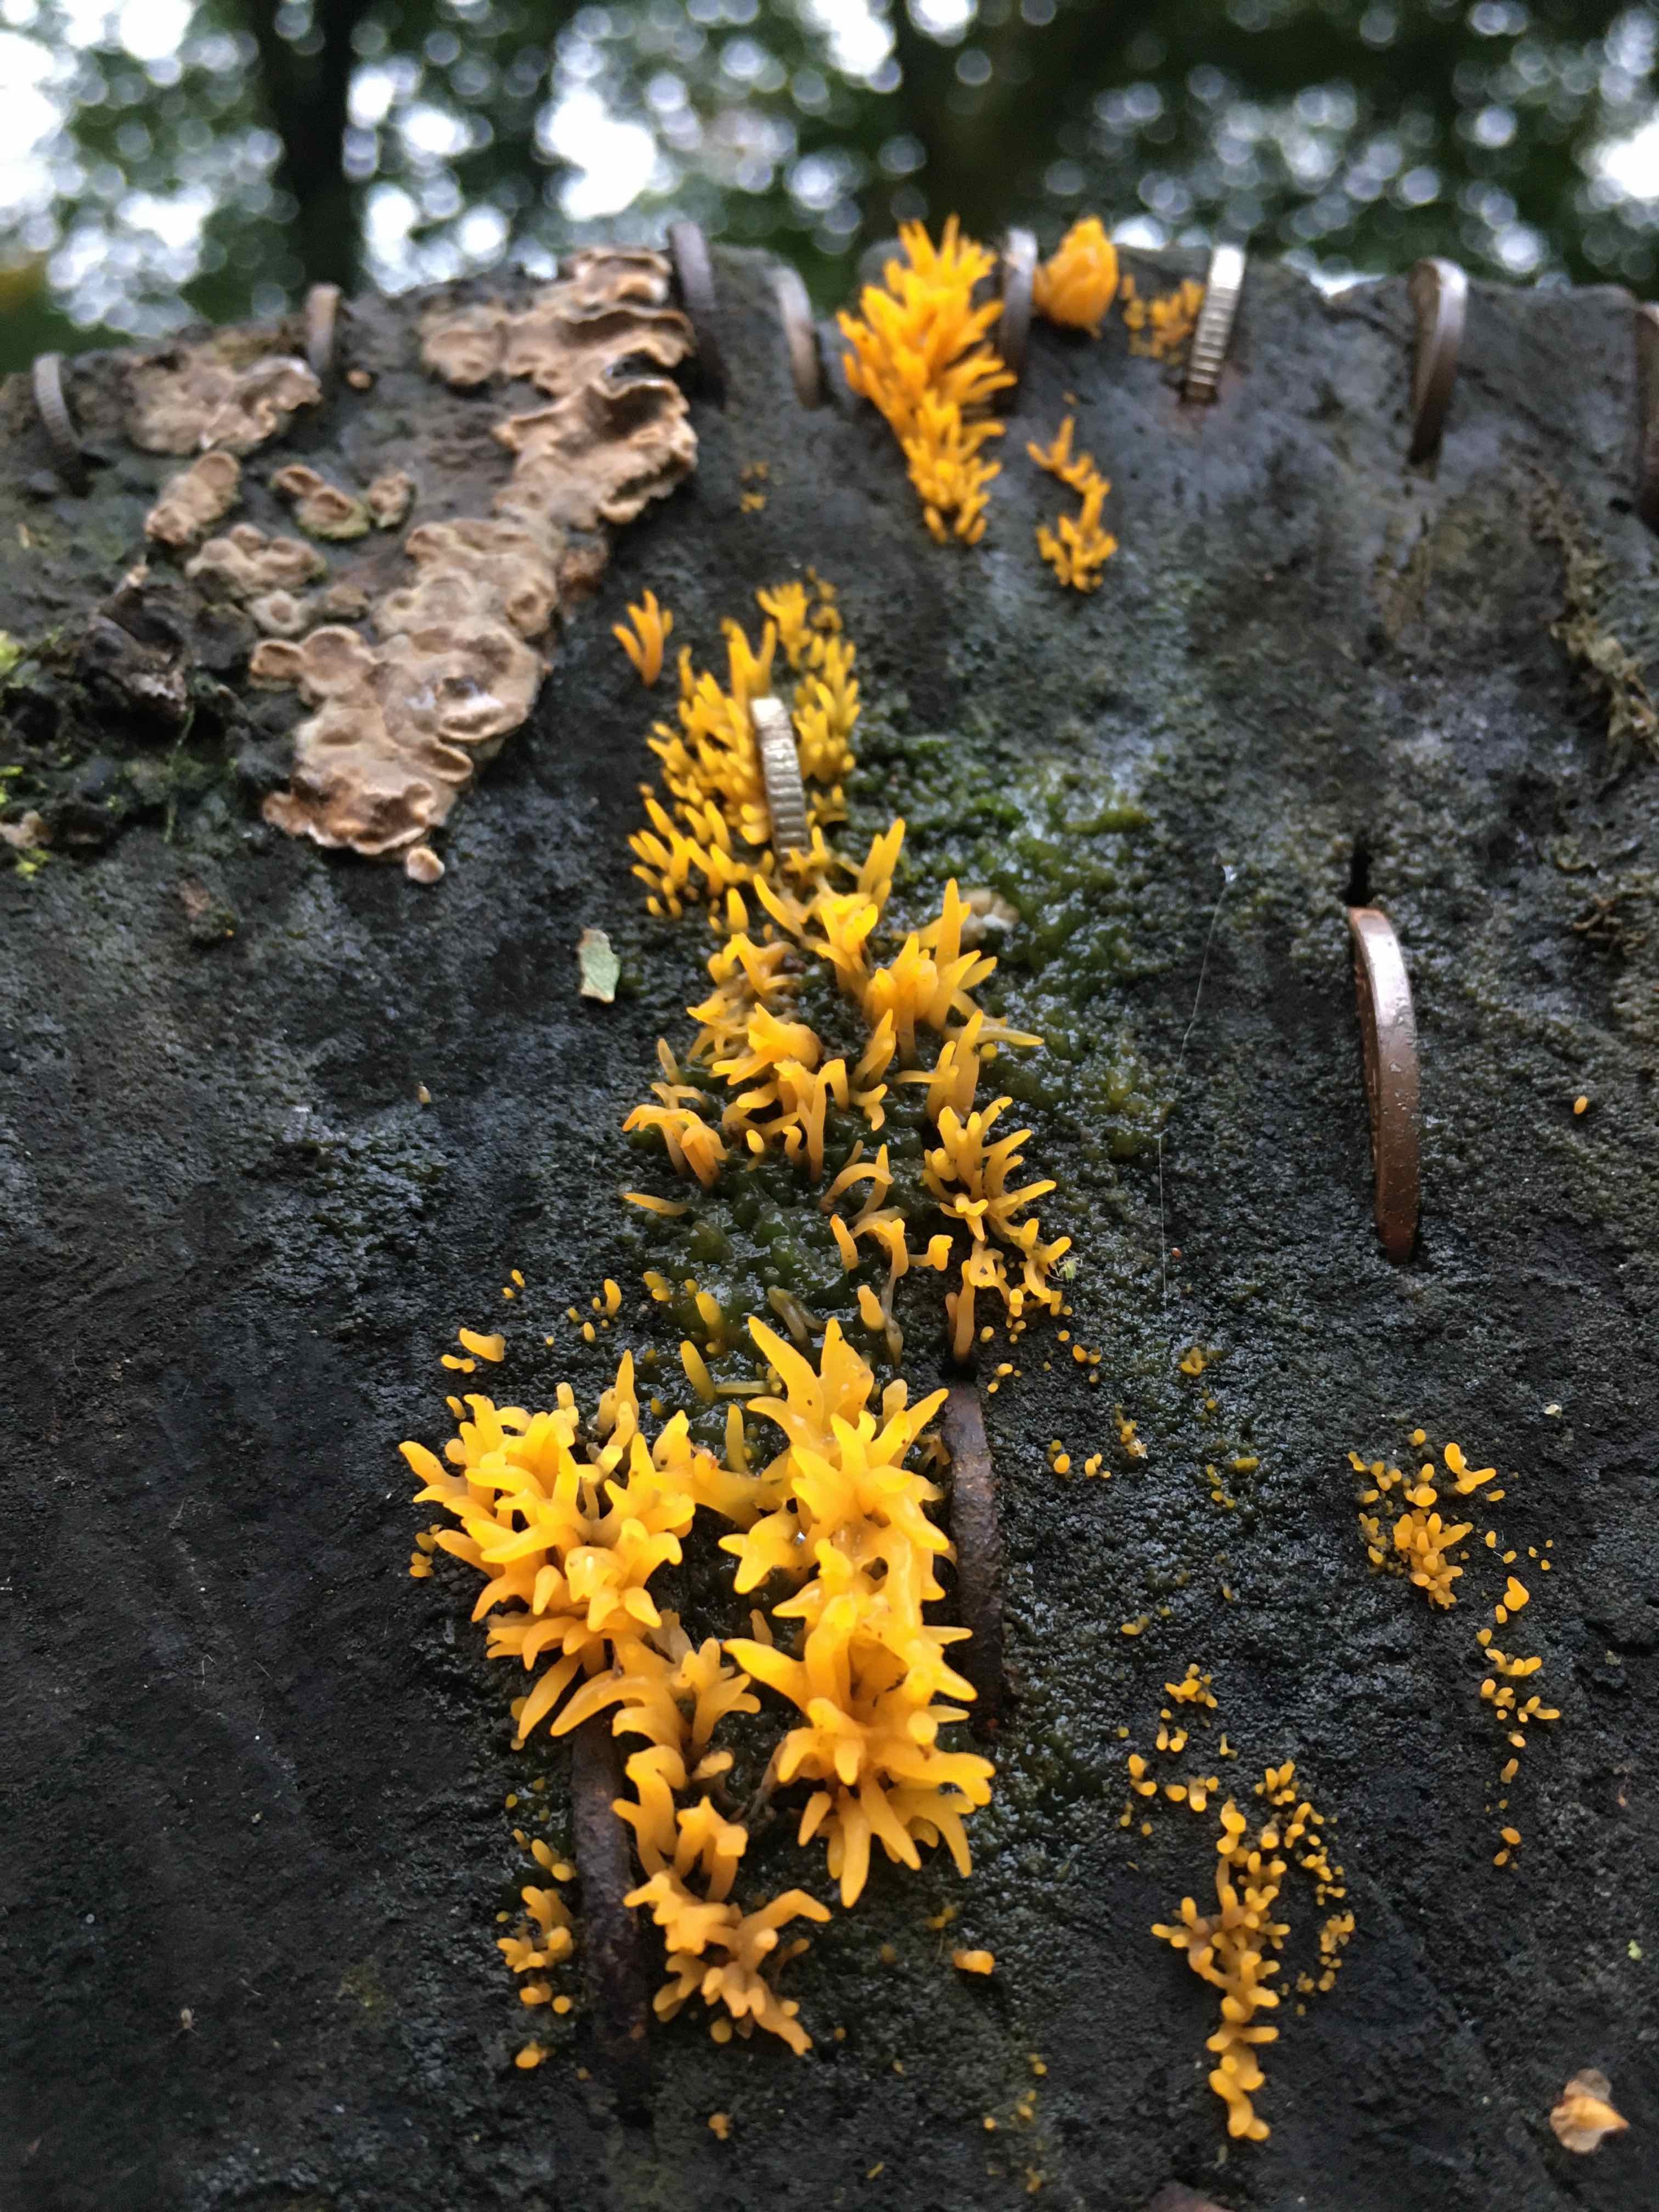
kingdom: Fungi
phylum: Basidiomycota
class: Dacrymycetes
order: Dacrymycetales
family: Dacrymycetaceae
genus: Calocera
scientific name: Calocera cornea
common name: liden guldgaffel
